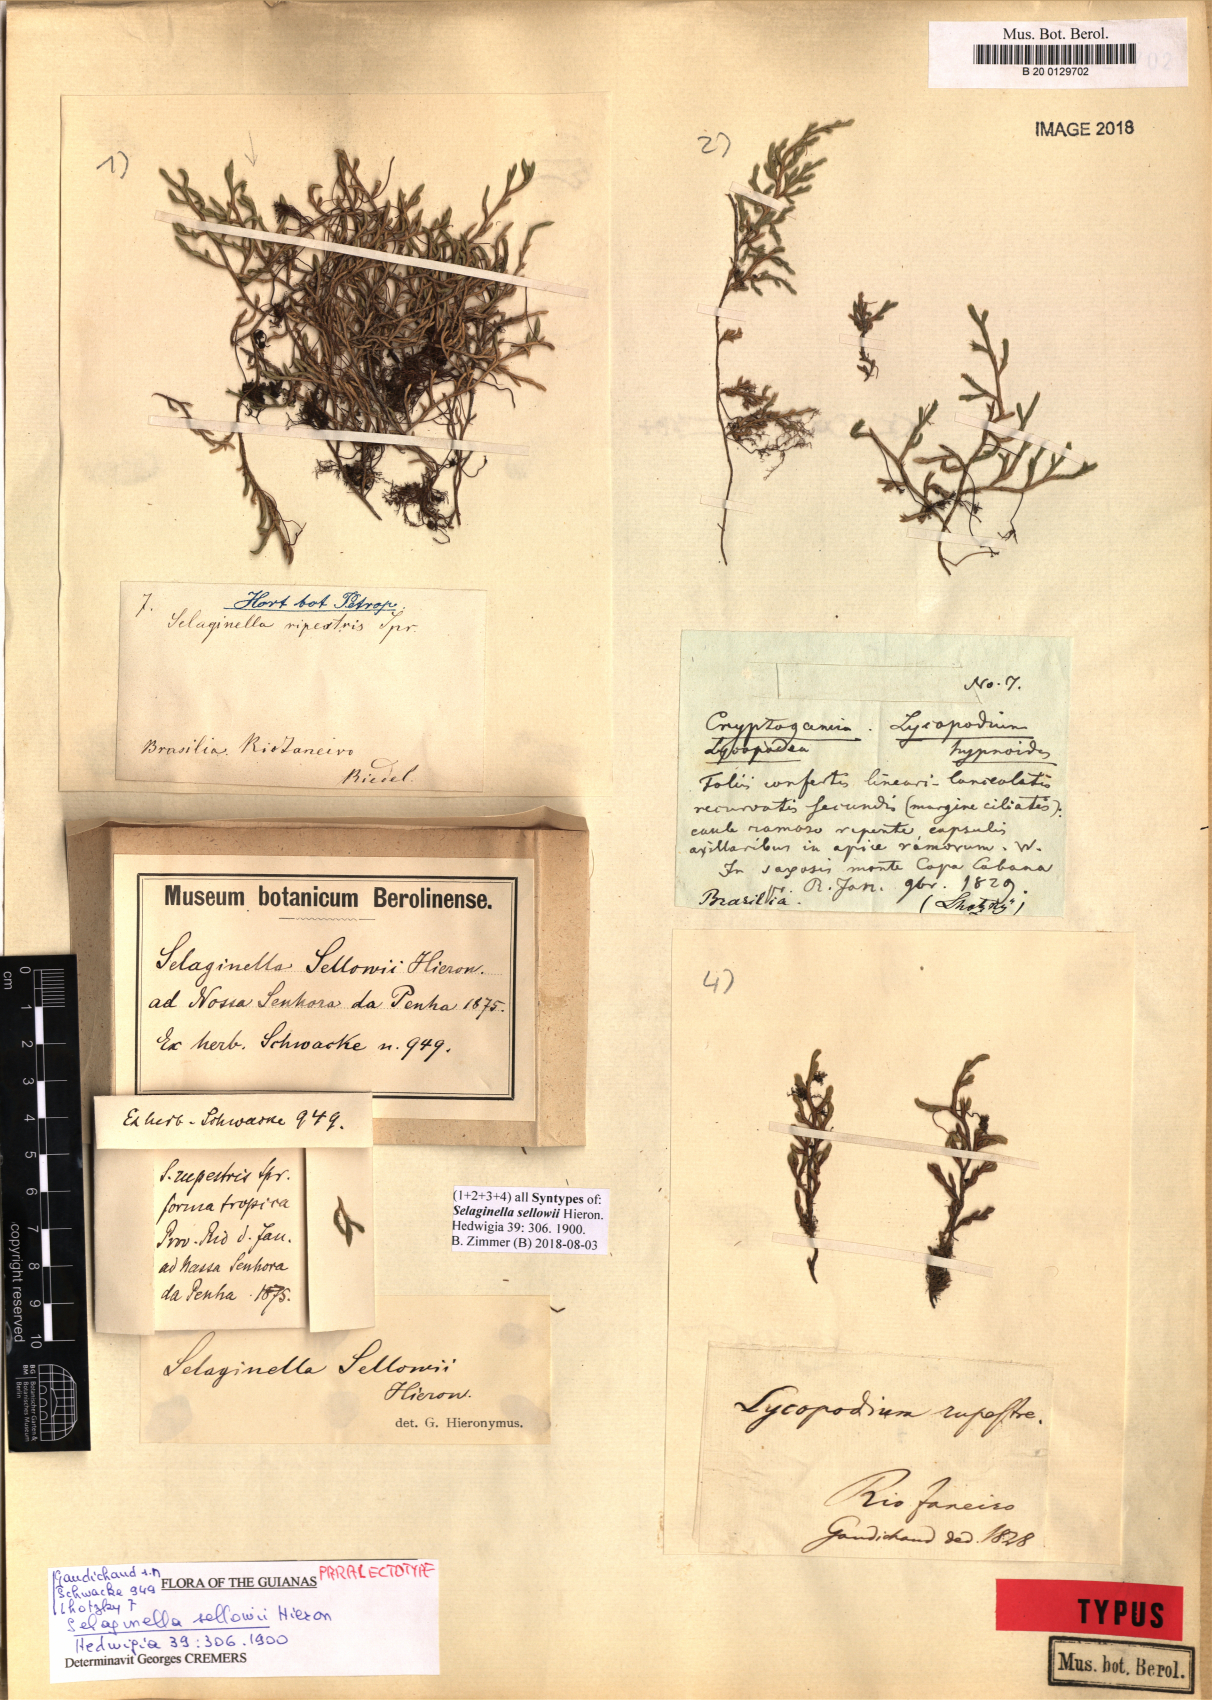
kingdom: Plantae
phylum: Tracheophyta
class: Lycopodiopsida
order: Selaginellales
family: Selaginellaceae
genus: Selaginella
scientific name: Selaginella sellowii
